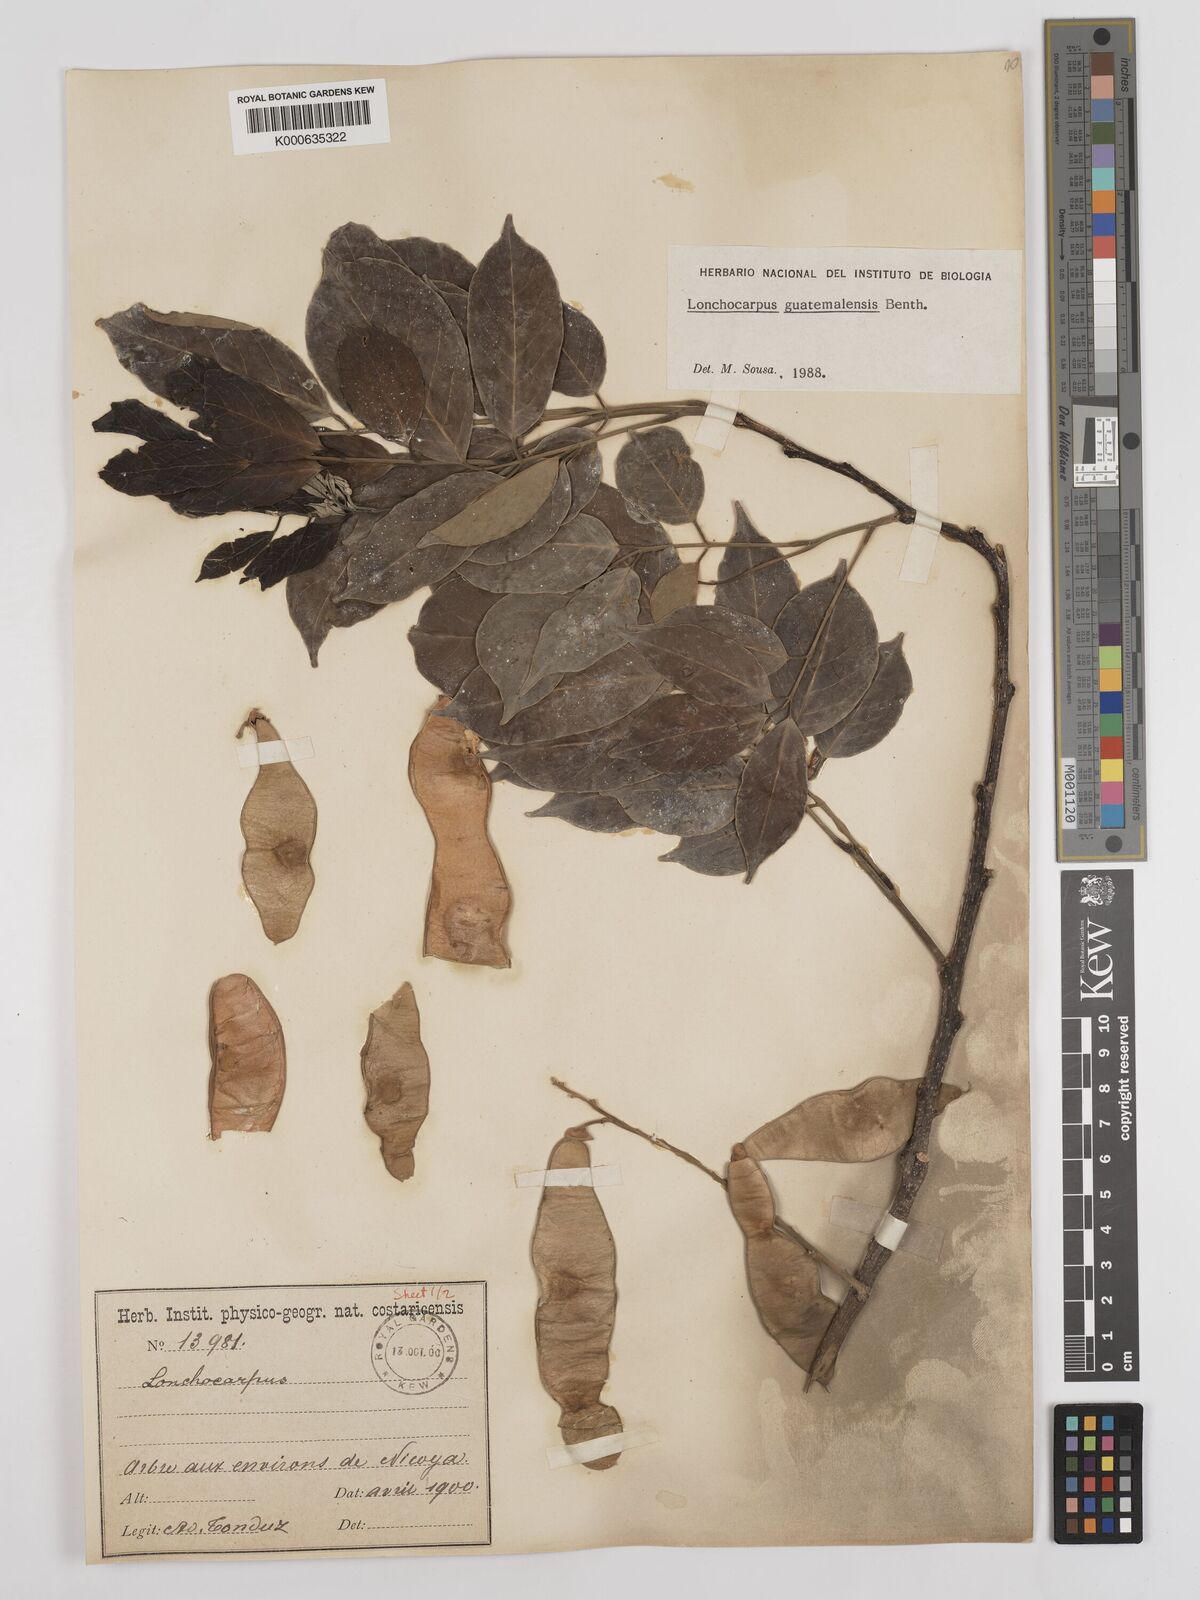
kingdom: Plantae
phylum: Tracheophyta
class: Magnoliopsida
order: Fabales
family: Fabaceae
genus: Lonchocarpus
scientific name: Lonchocarpus guatemalensis
